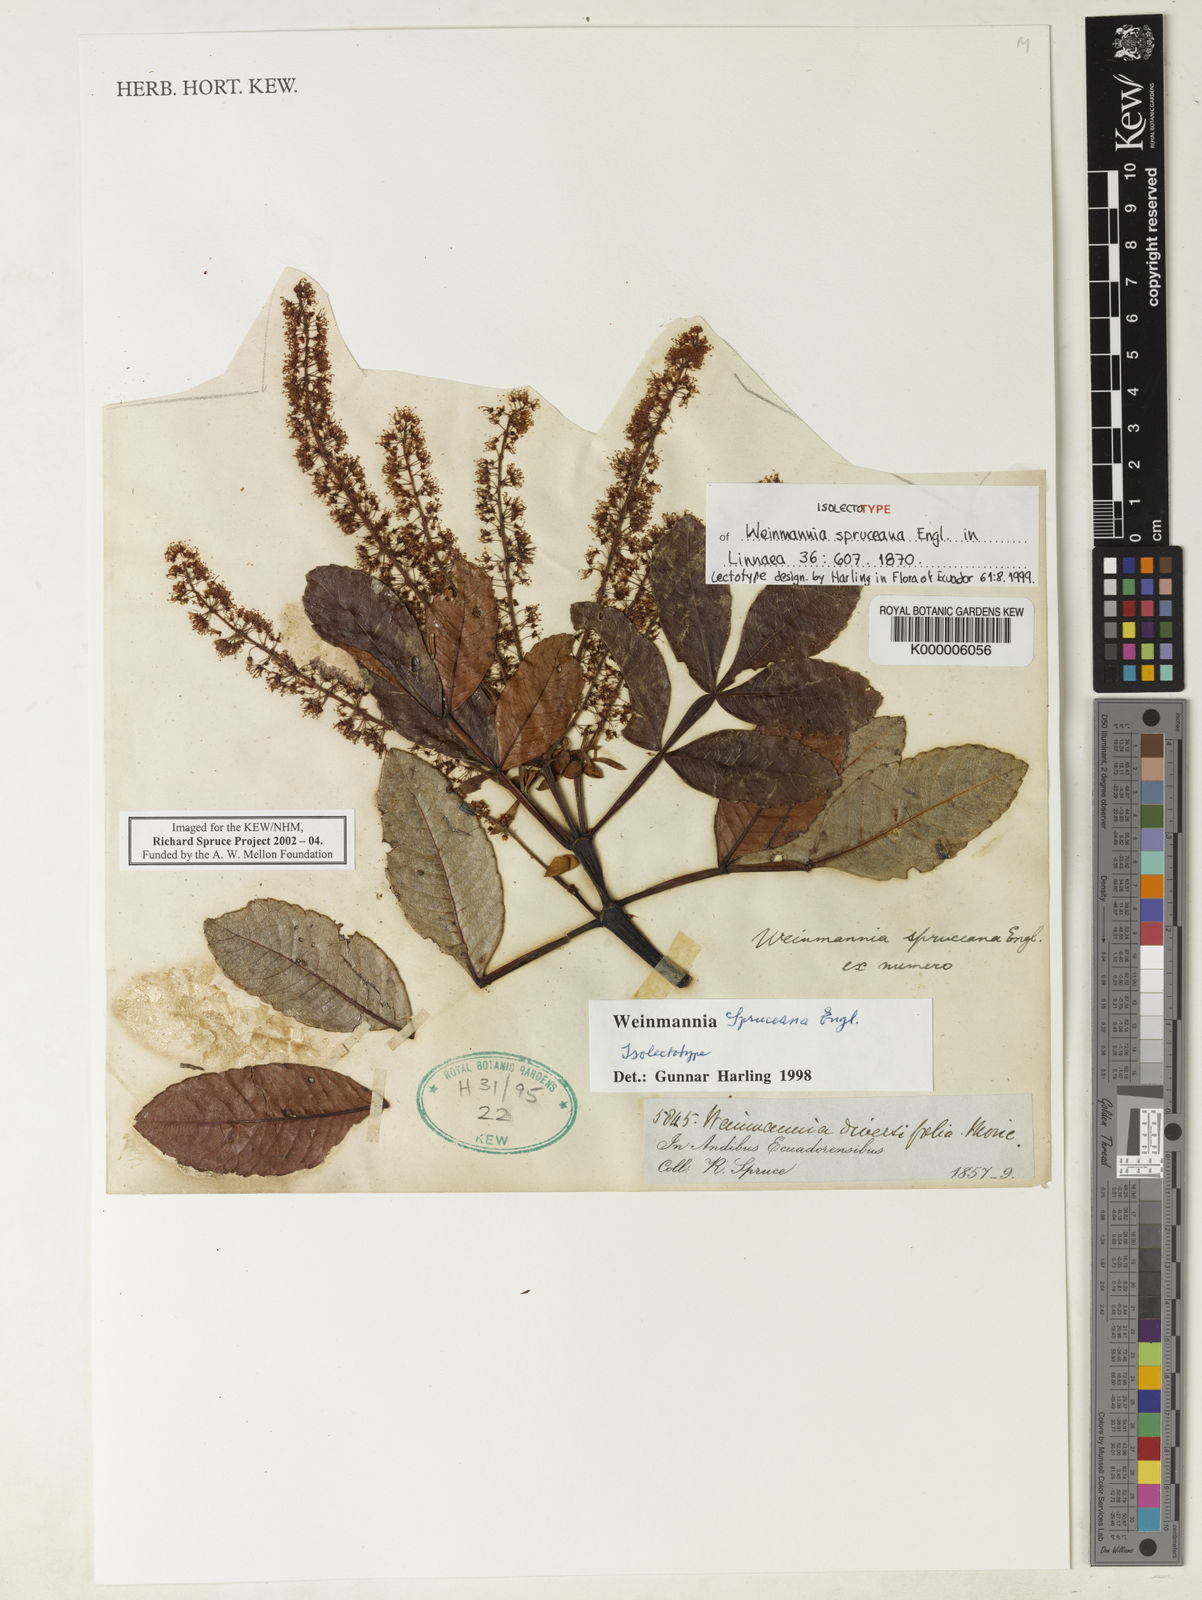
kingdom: Plantae
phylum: Tracheophyta
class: Magnoliopsida
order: Oxalidales
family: Cunoniaceae
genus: Weinmannia
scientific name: Weinmannia spruceana
